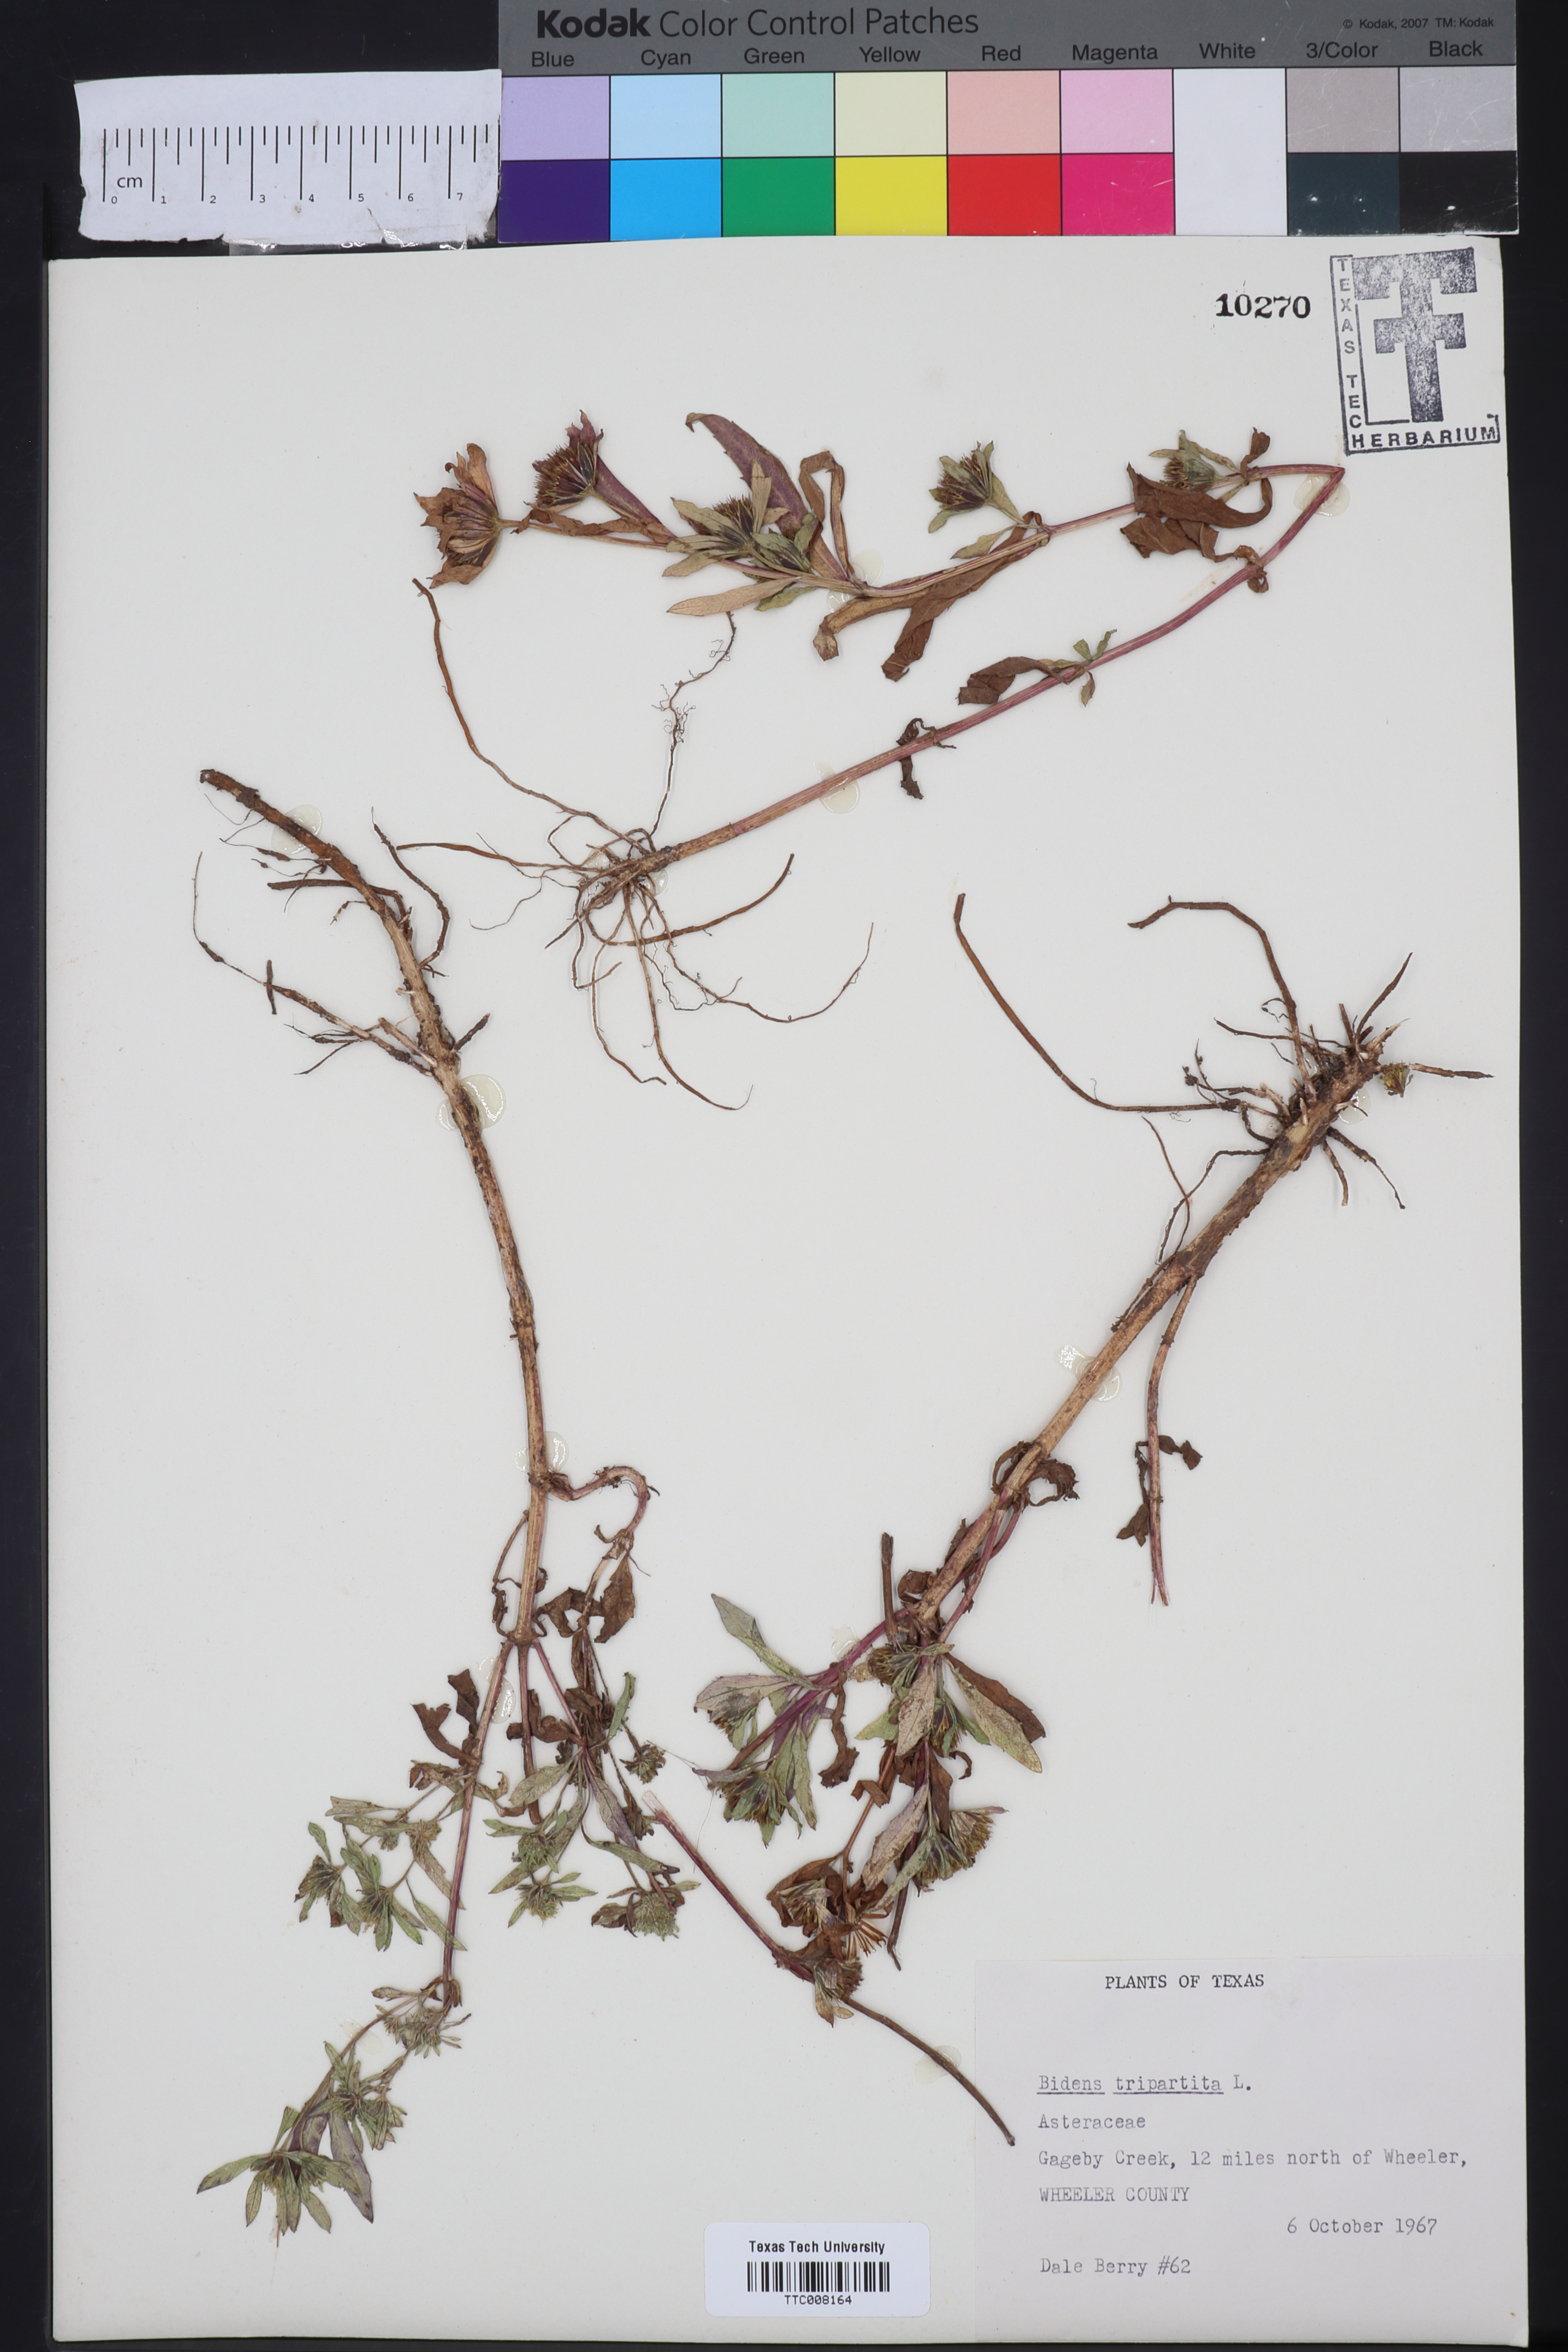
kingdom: Plantae
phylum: Tracheophyta
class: Magnoliopsida
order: Asterales
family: Asteraceae
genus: Bidens
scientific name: Bidens tripartita
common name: Trifid bur-marigold
